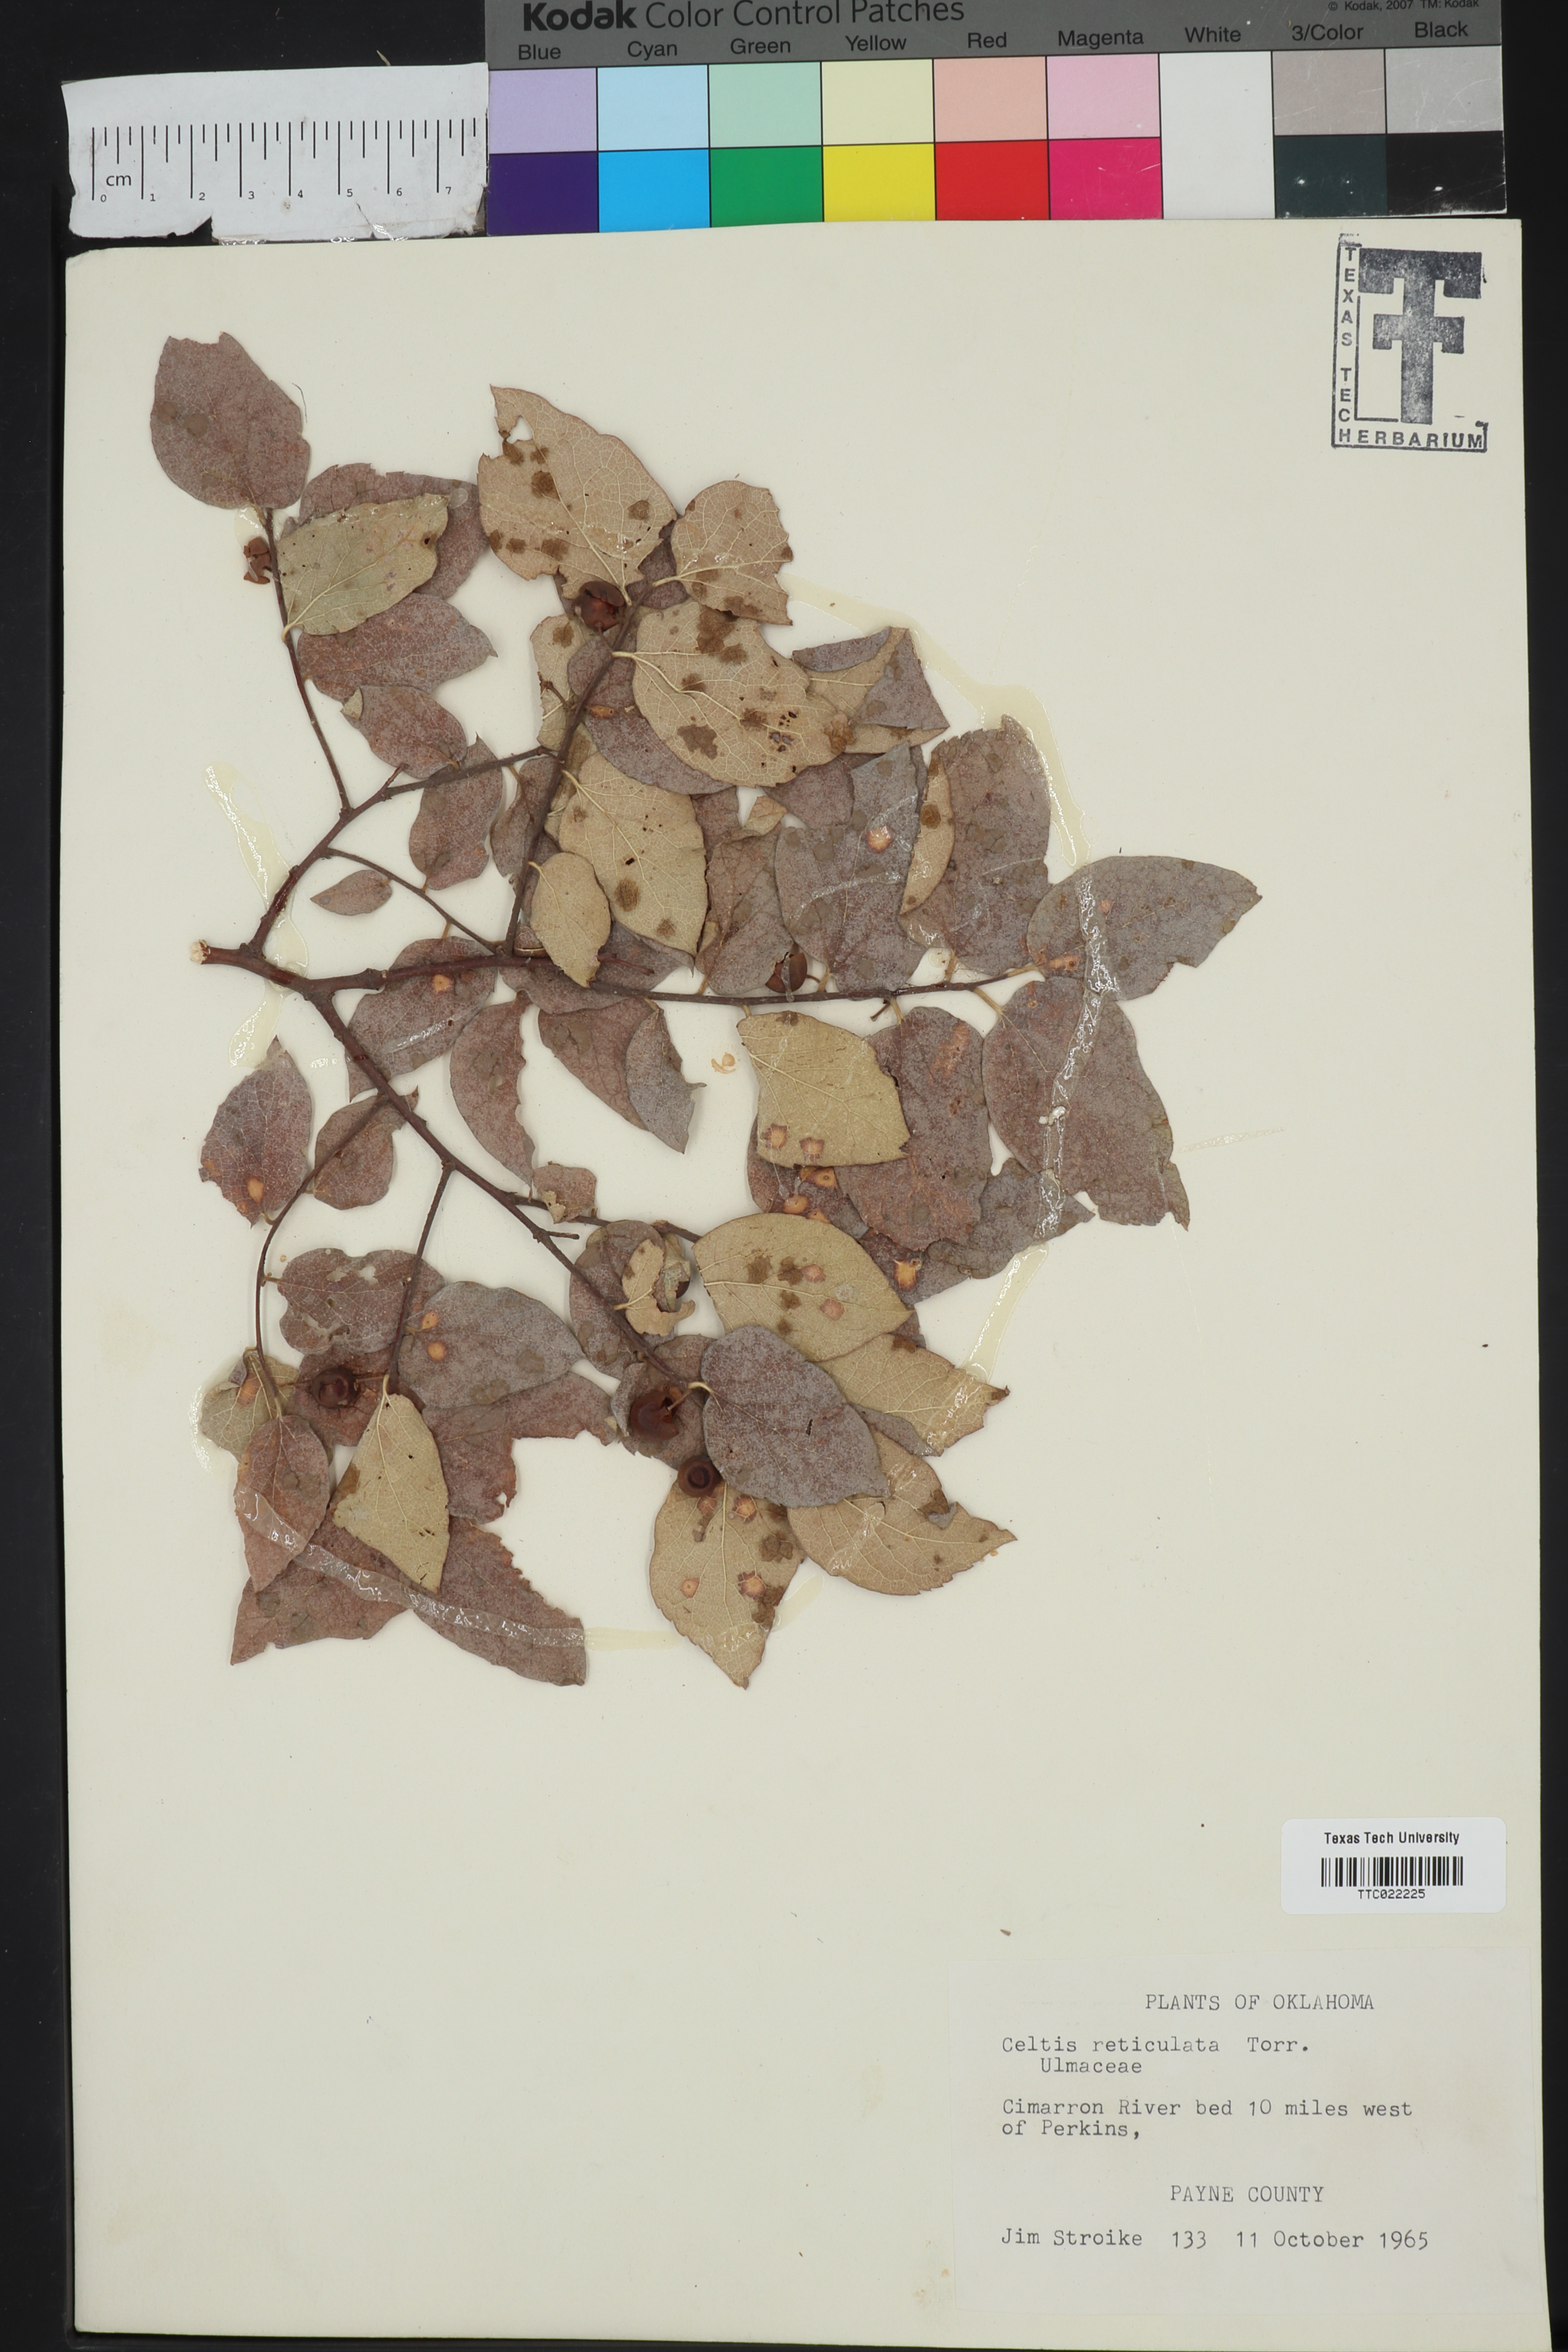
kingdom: Plantae
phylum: Tracheophyta
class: Magnoliopsida
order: Rosales
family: Cannabaceae
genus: Celtis
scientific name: Celtis reticulata
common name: Netleaf hackberry
